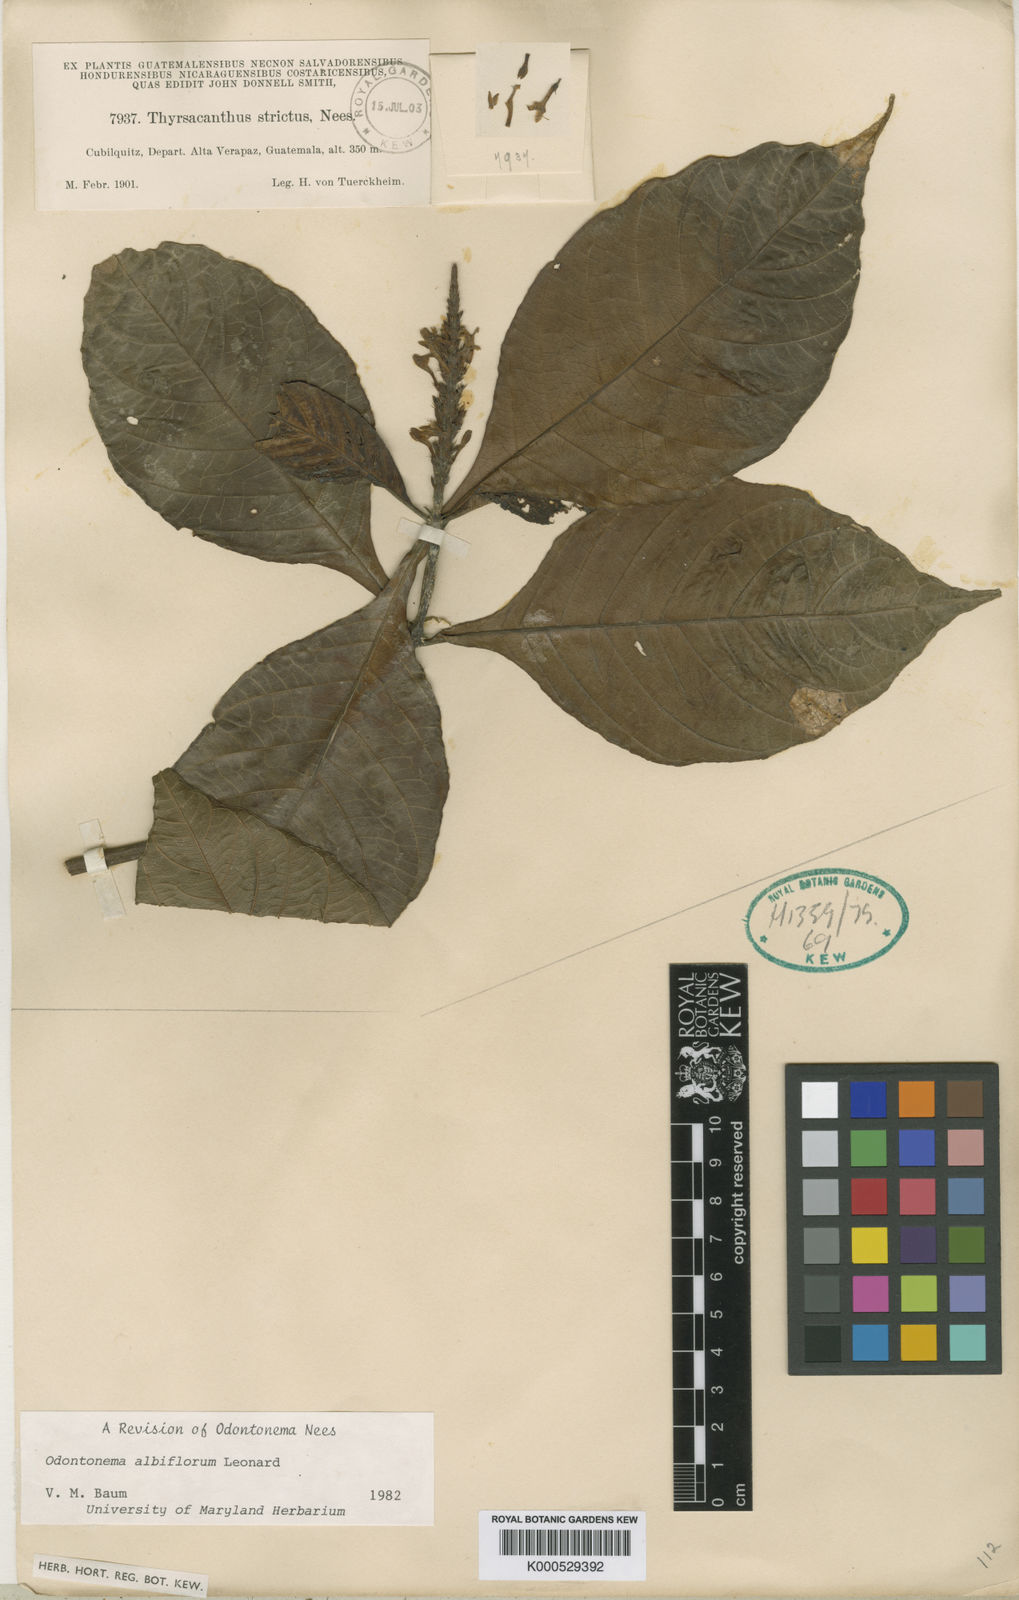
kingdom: Plantae
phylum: Tracheophyta
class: Magnoliopsida
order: Lamiales
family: Acanthaceae
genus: Odontonema
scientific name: Odontonema albiflorum
